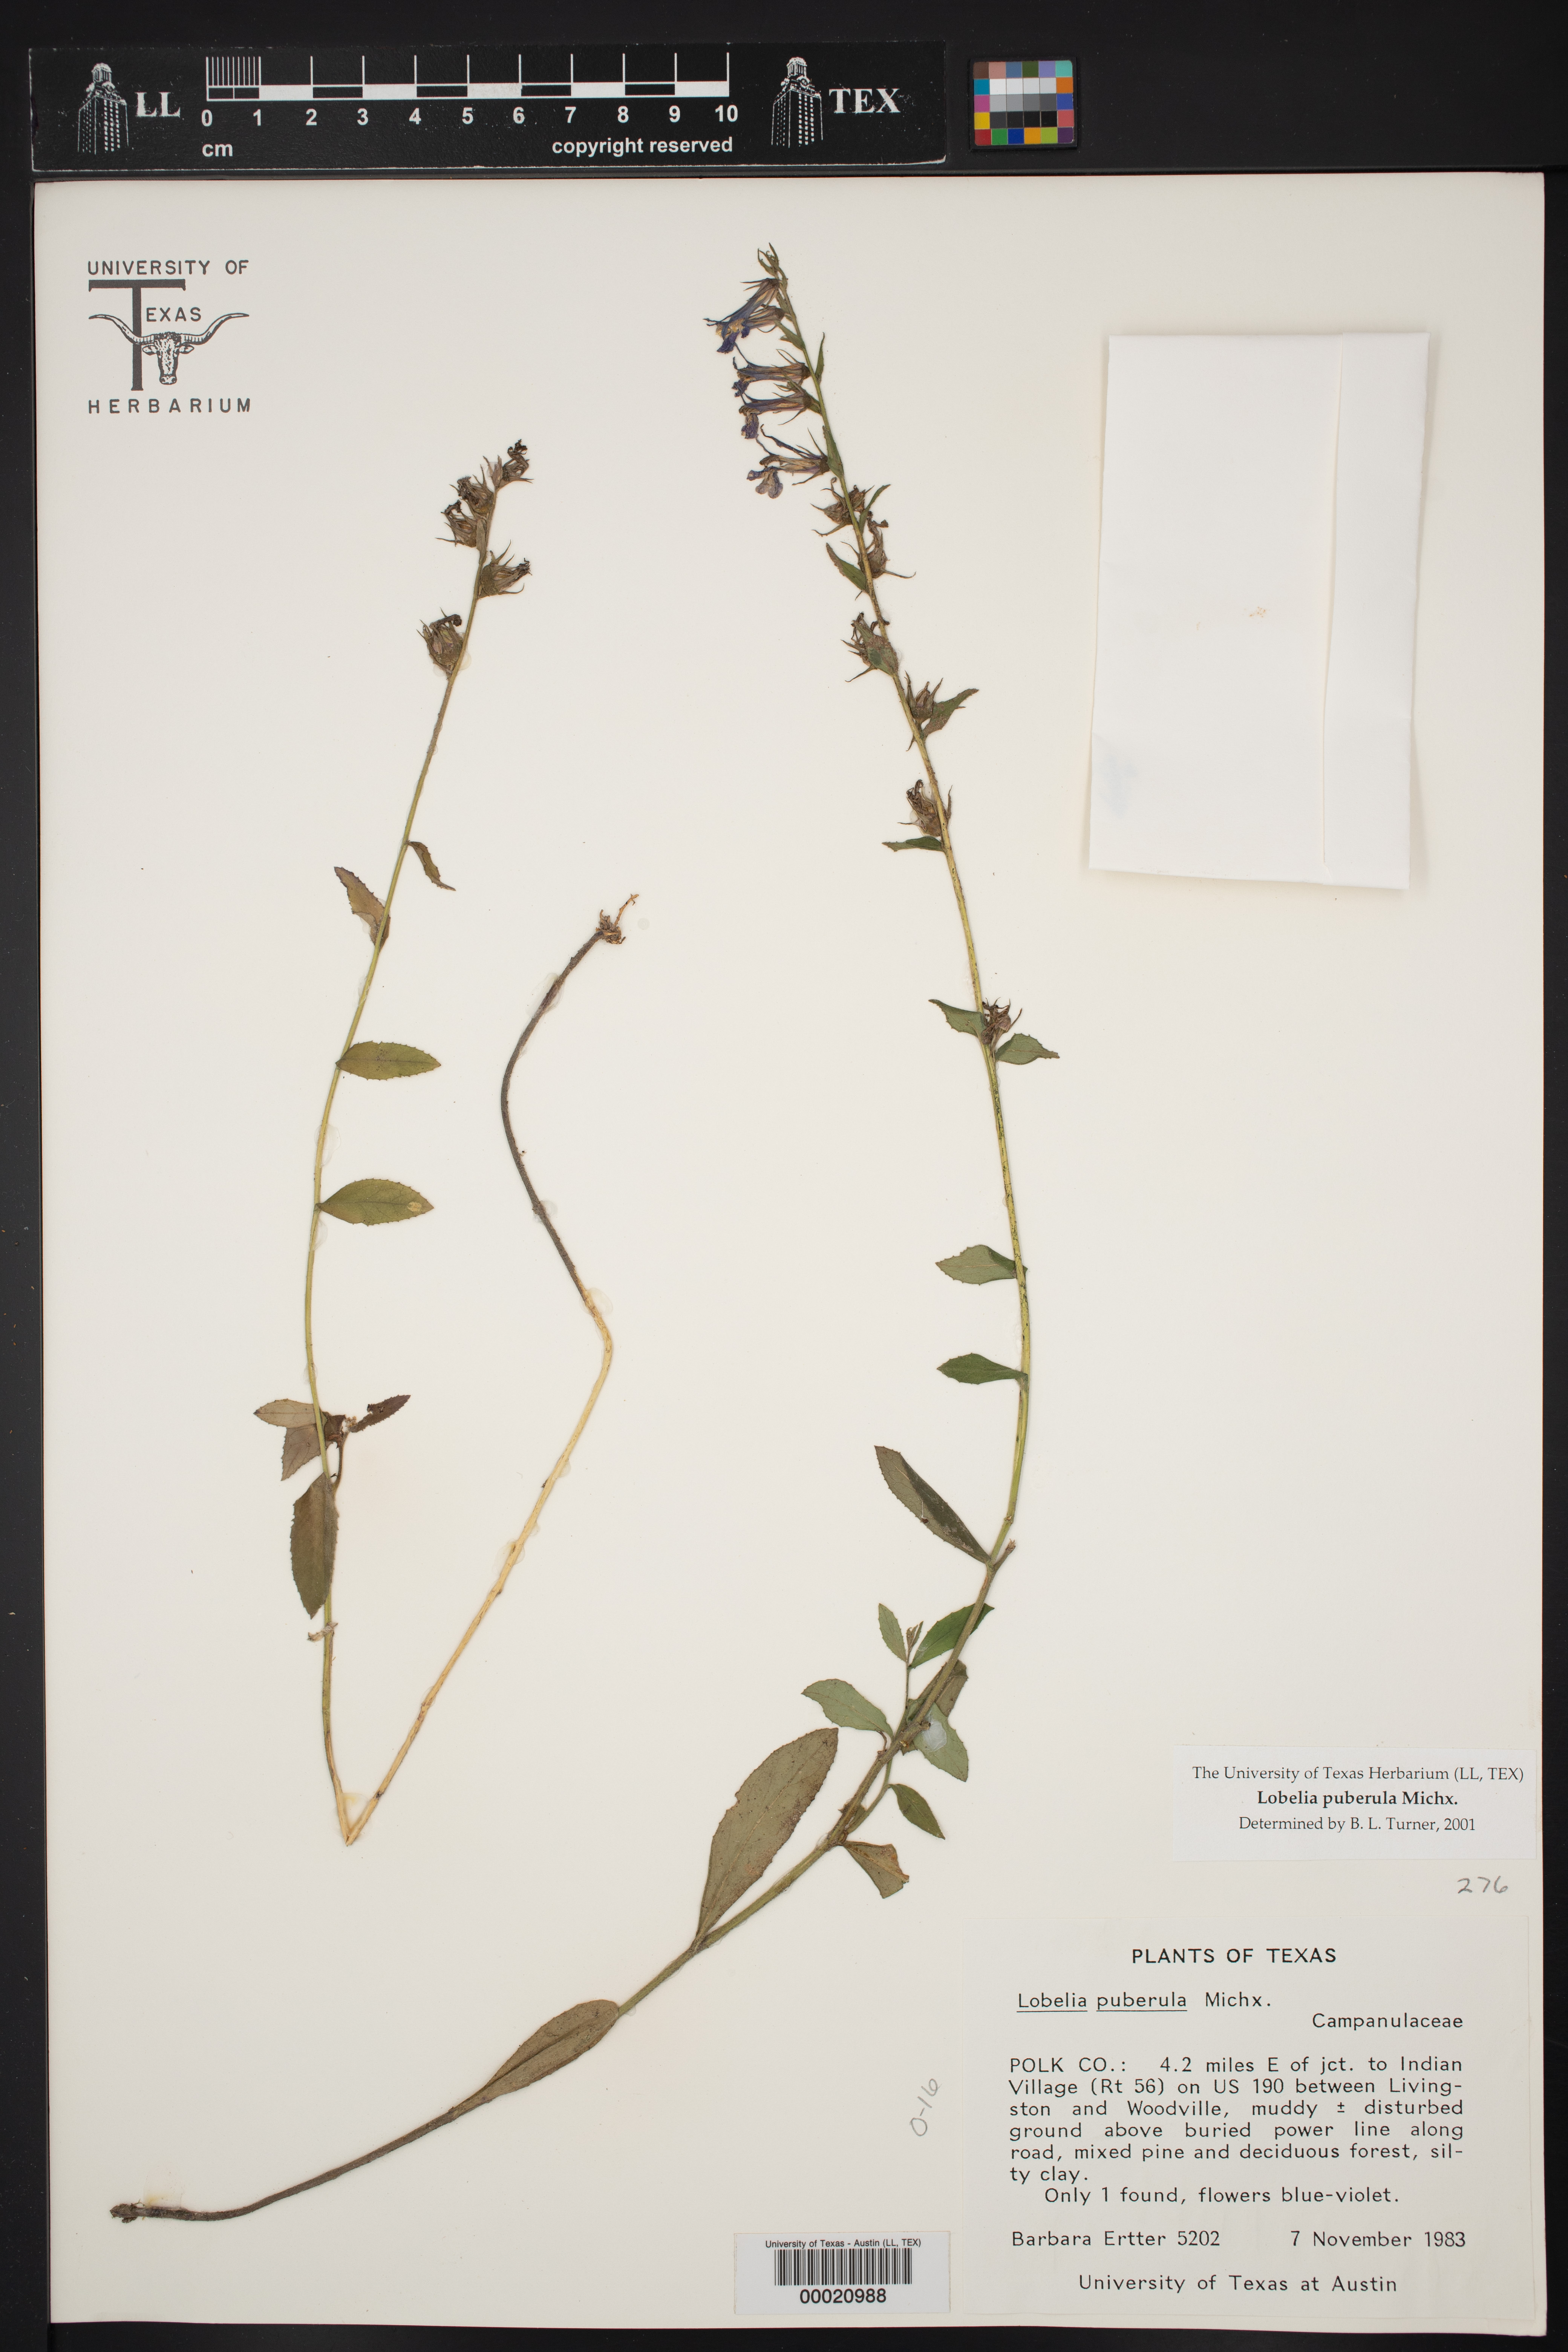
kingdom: Plantae
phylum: Tracheophyta
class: Magnoliopsida
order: Asterales
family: Campanulaceae
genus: Lobelia
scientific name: Lobelia puberula
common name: Purple dewdrop
